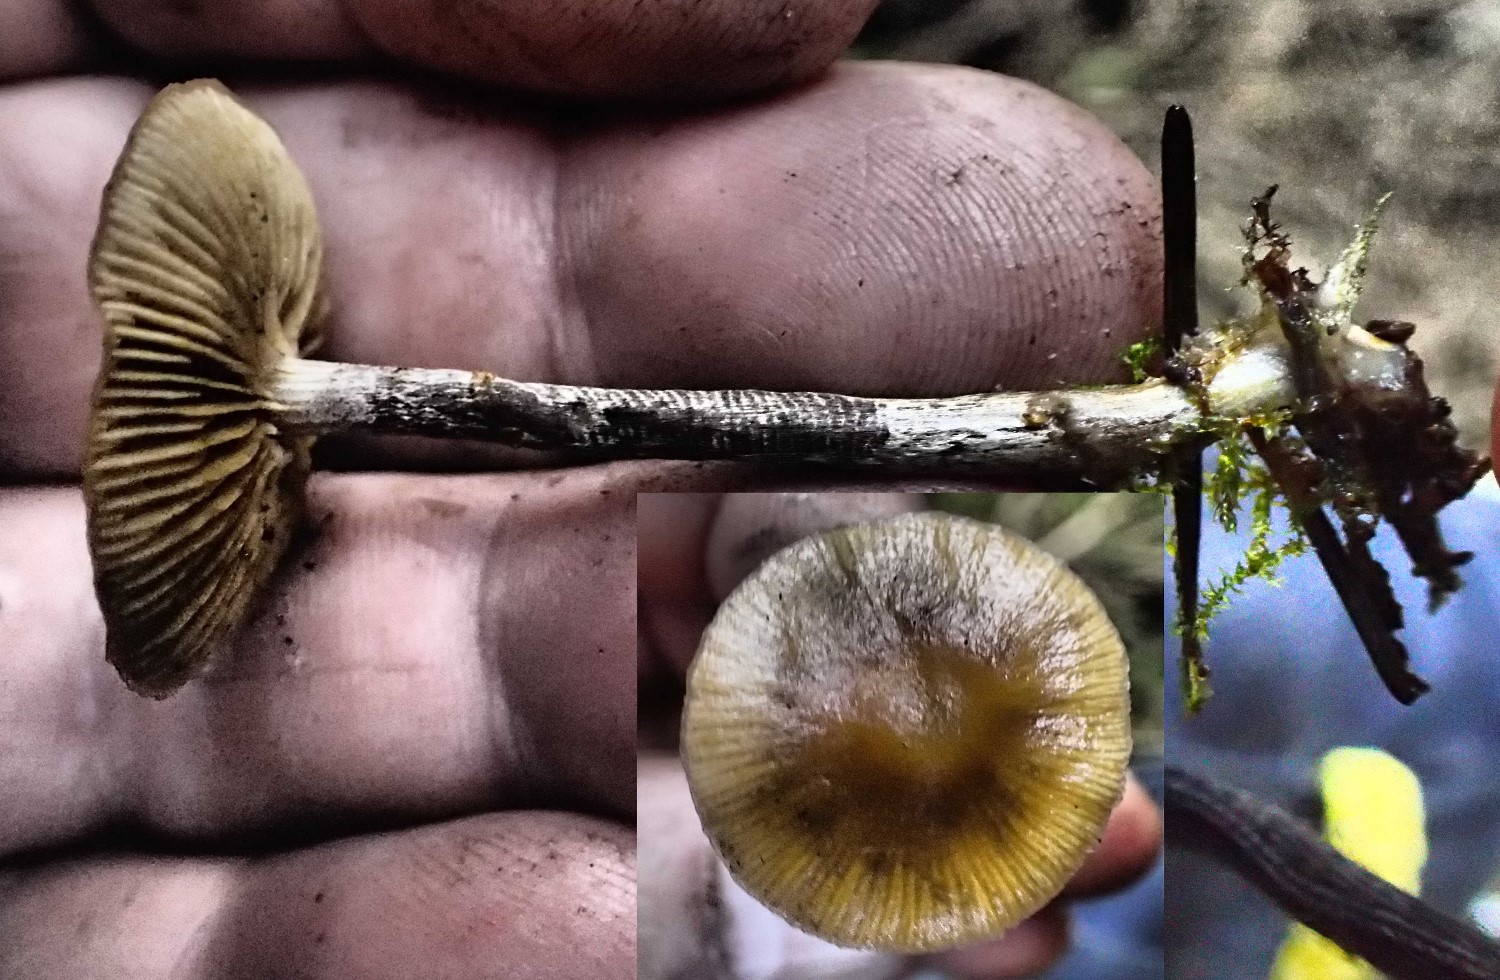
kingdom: Fungi
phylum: Basidiomycota
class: Agaricomycetes
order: Agaricales
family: Hymenogastraceae
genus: Galerina
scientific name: Galerina marginata
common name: randbæltet hjelmhat
